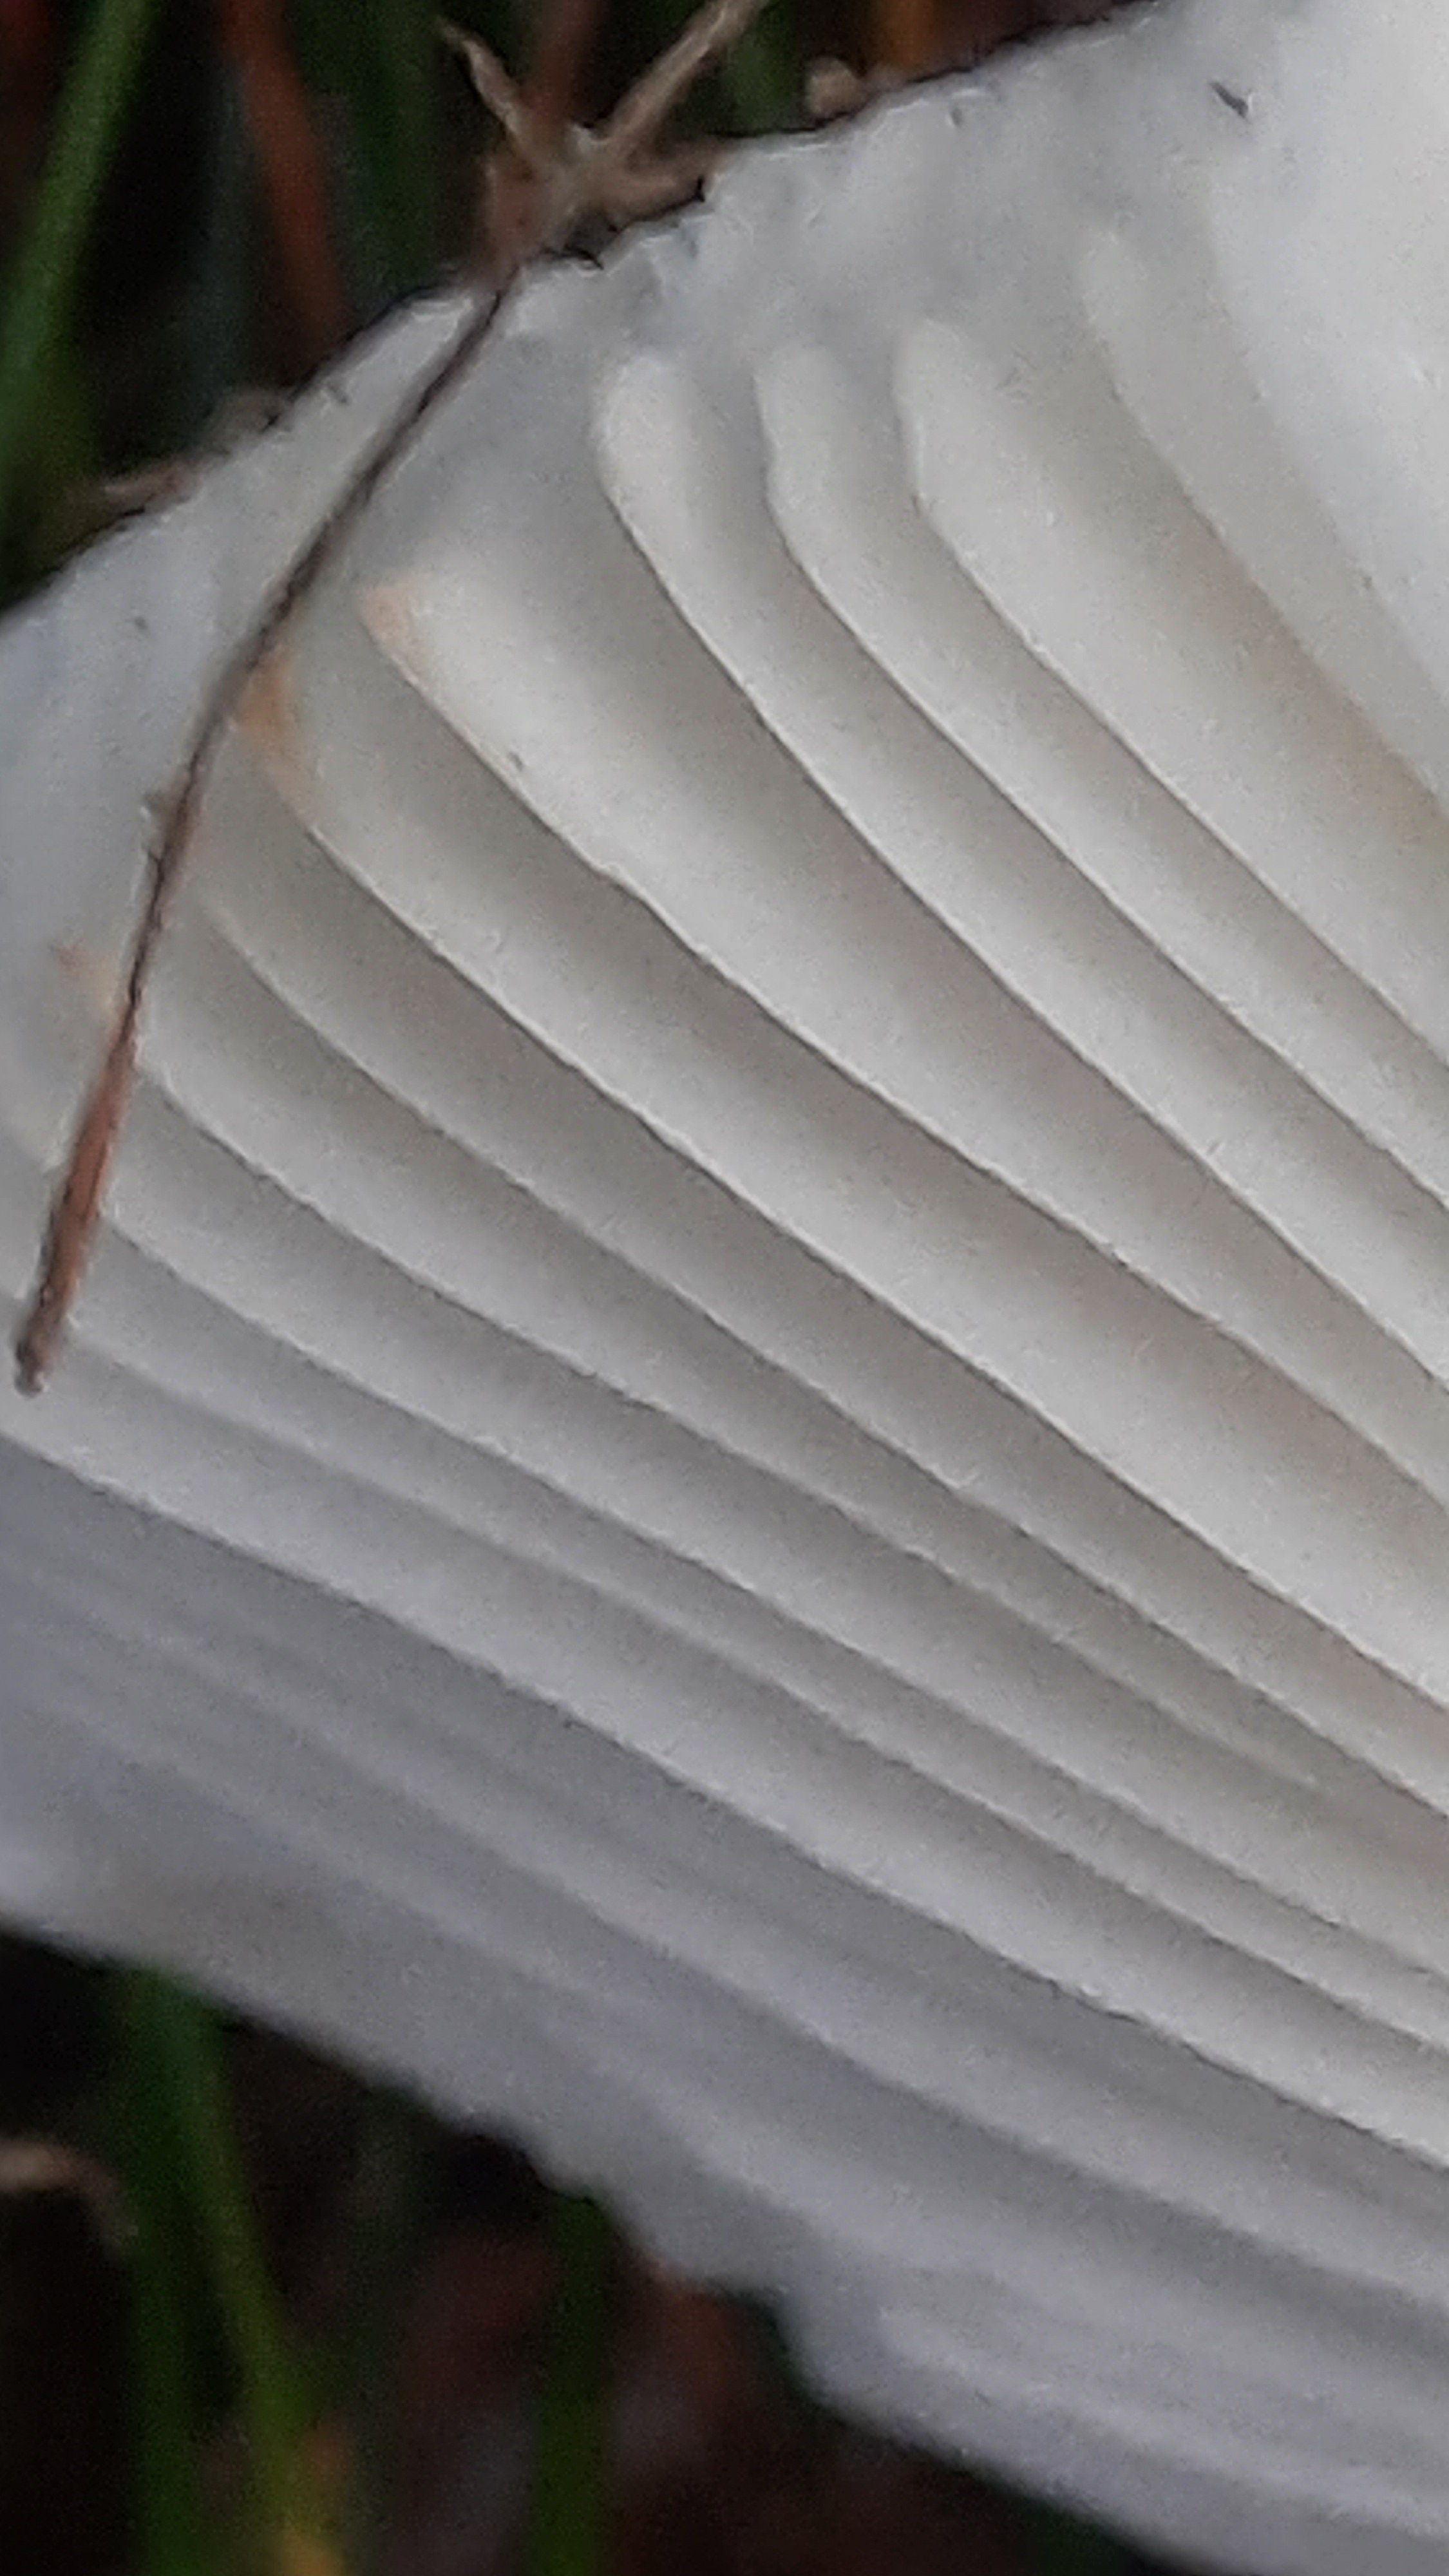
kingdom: Fungi
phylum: Basidiomycota
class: Agaricomycetes
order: Russulales
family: Russulaceae
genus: Russula
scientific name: Russula fragilis
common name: savbladet skørhat
